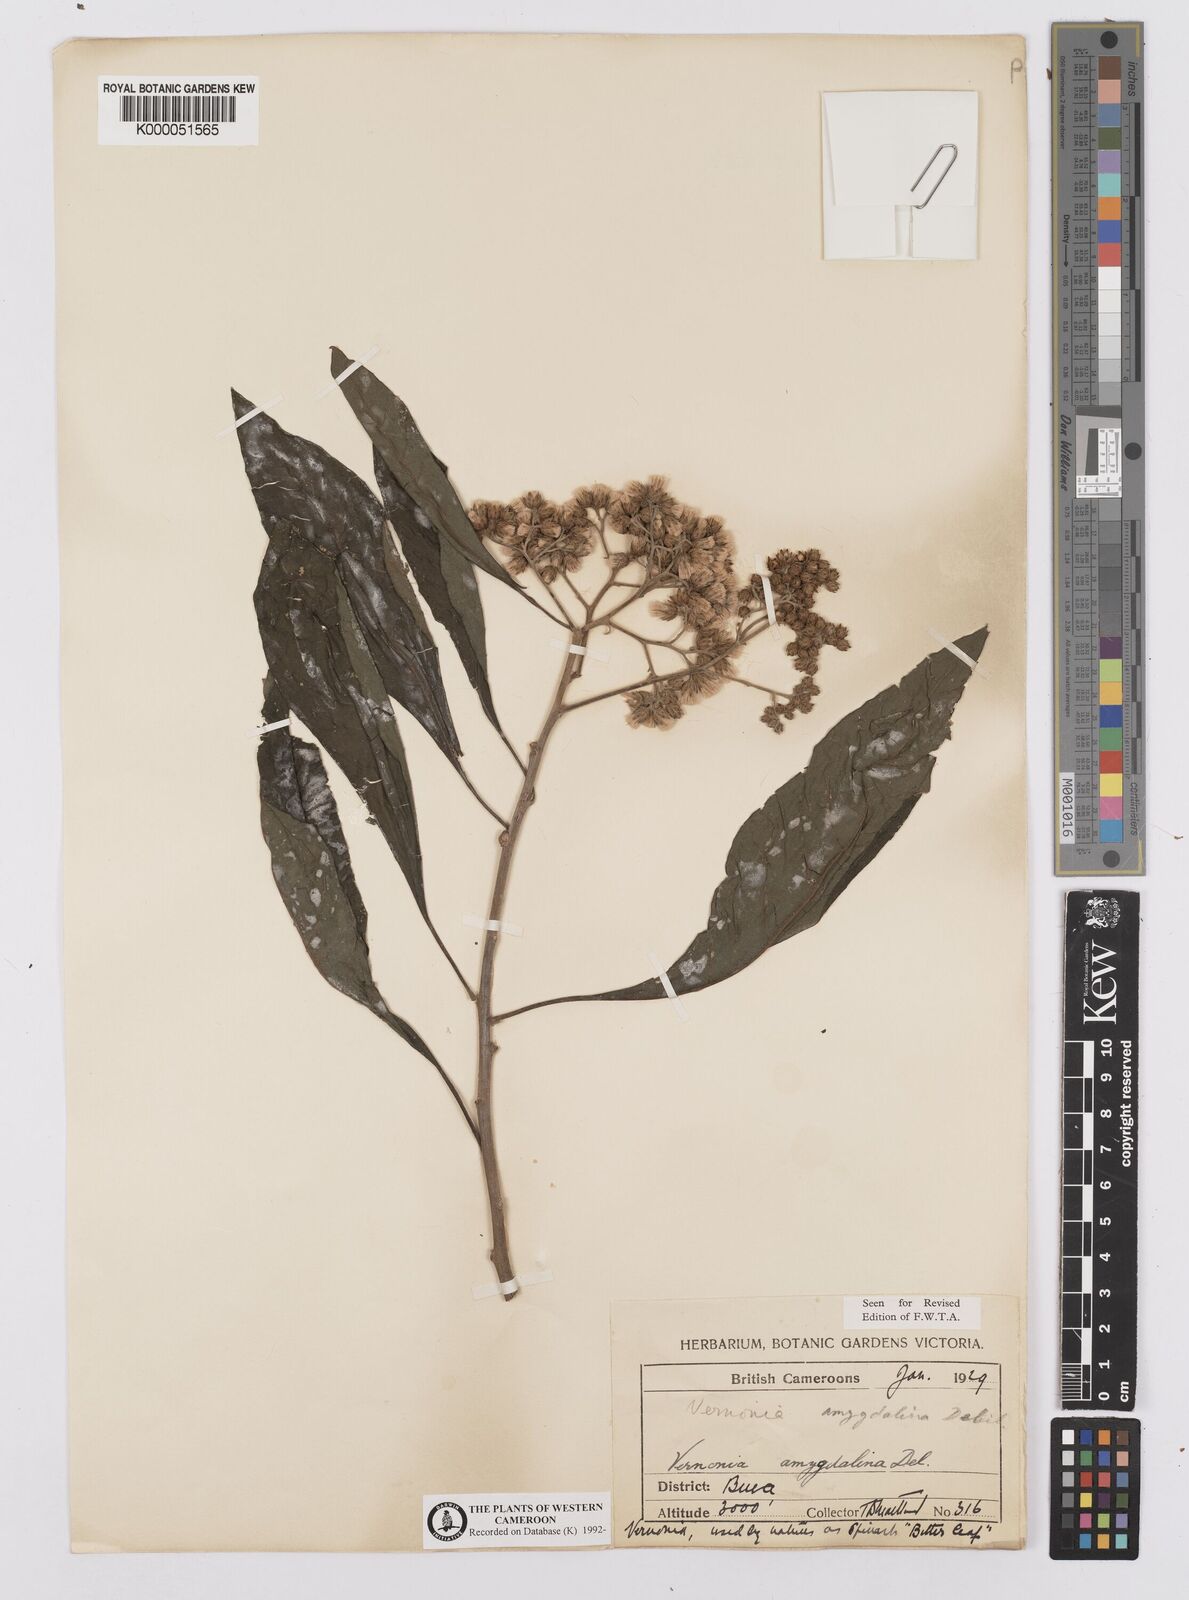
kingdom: Plantae
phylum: Tracheophyta
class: Magnoliopsida
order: Asterales
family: Asteraceae
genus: Gymnanthemum
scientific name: Gymnanthemum amygdalinum
